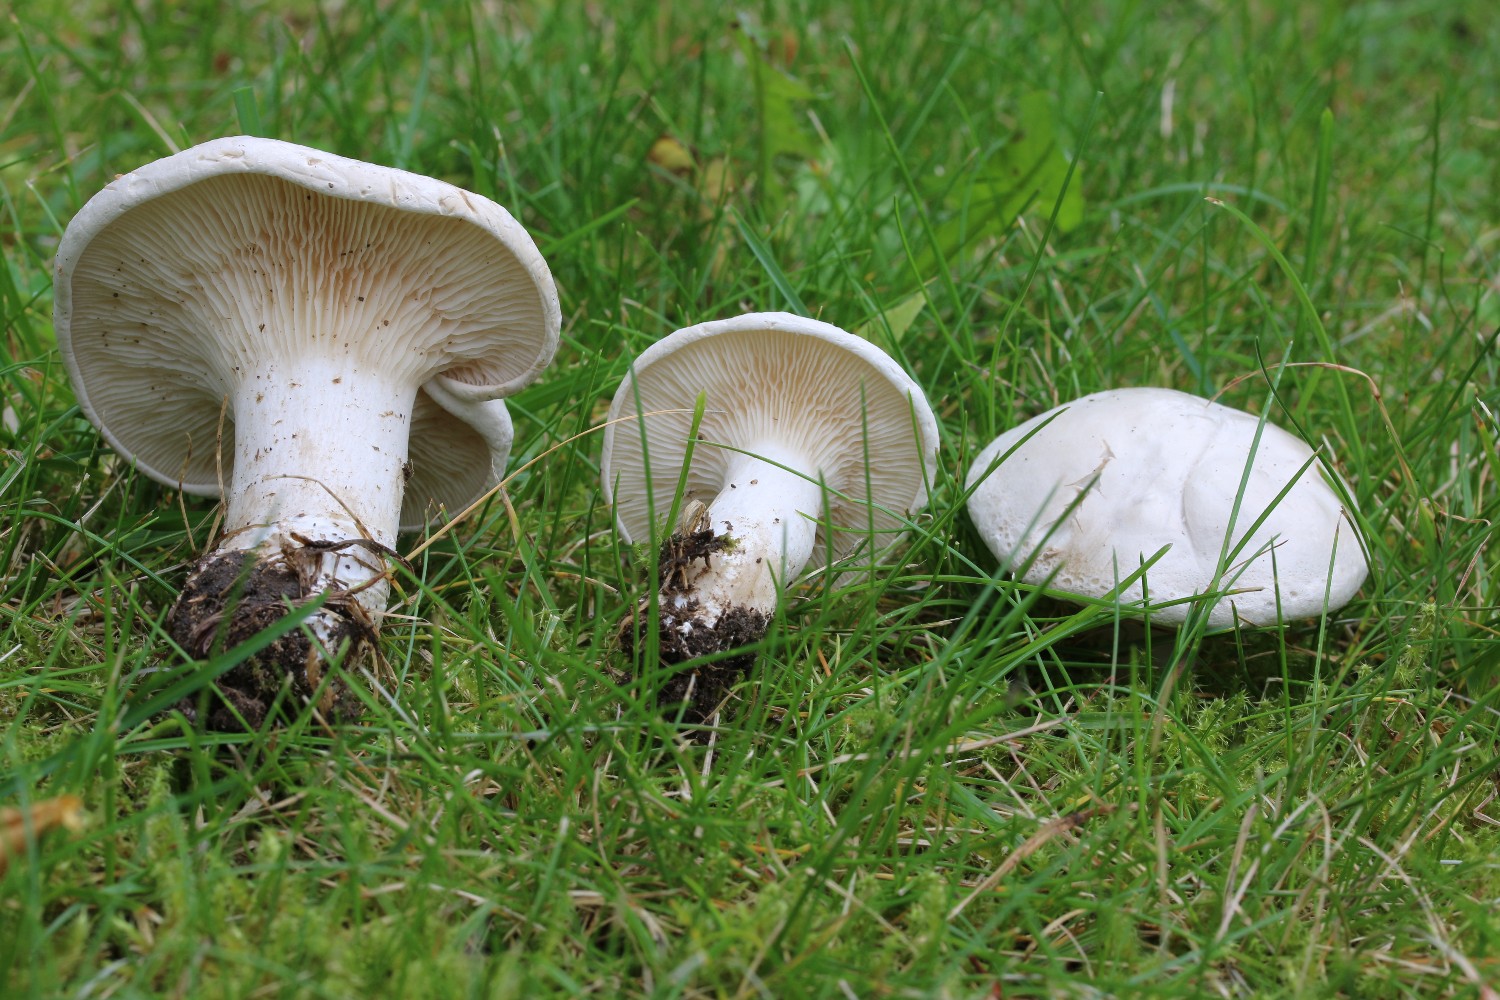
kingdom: Fungi
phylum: Basidiomycota
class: Agaricomycetes
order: Agaricales
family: Entolomataceae
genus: Clitopilus
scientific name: Clitopilus prunulus
